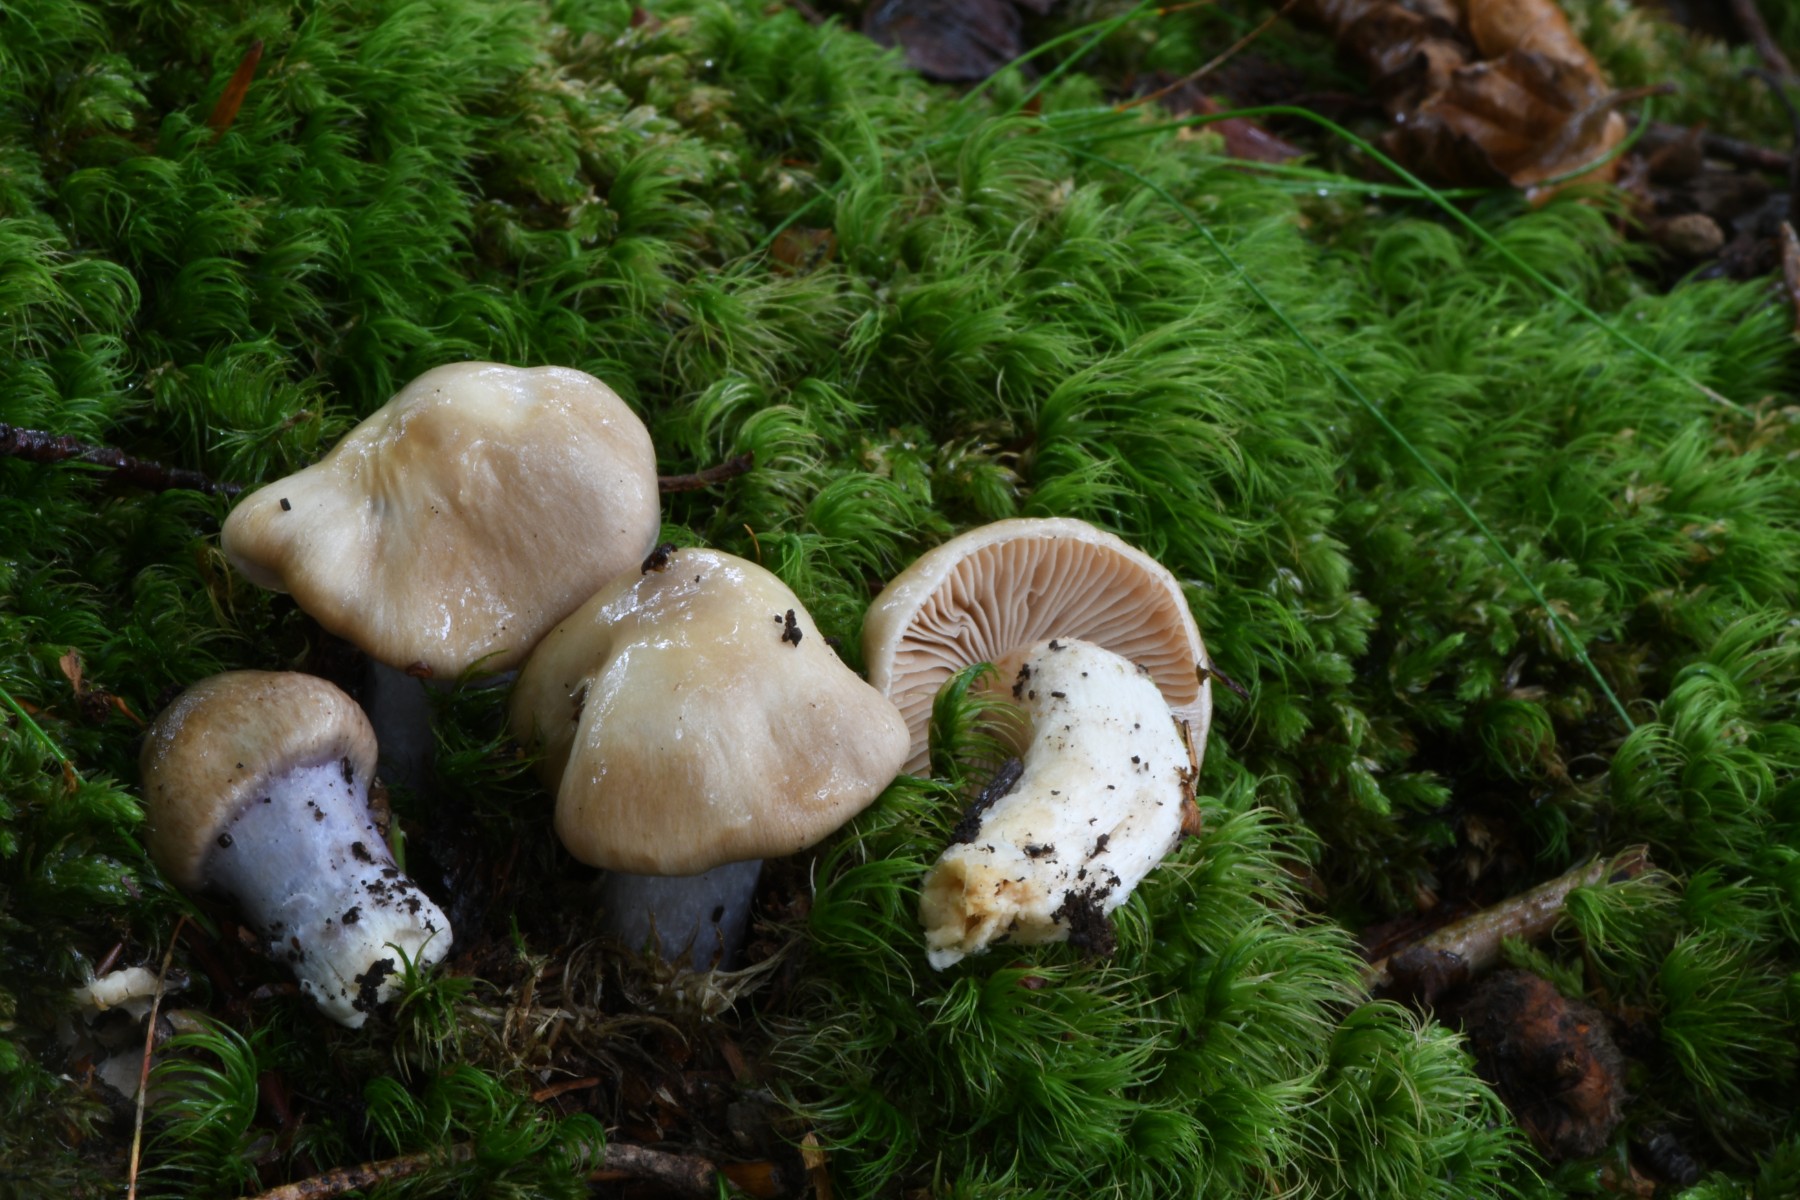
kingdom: Fungi
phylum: Basidiomycota
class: Agaricomycetes
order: Agaricales
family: Cortinariaceae
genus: Cortinarius
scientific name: Cortinarius
